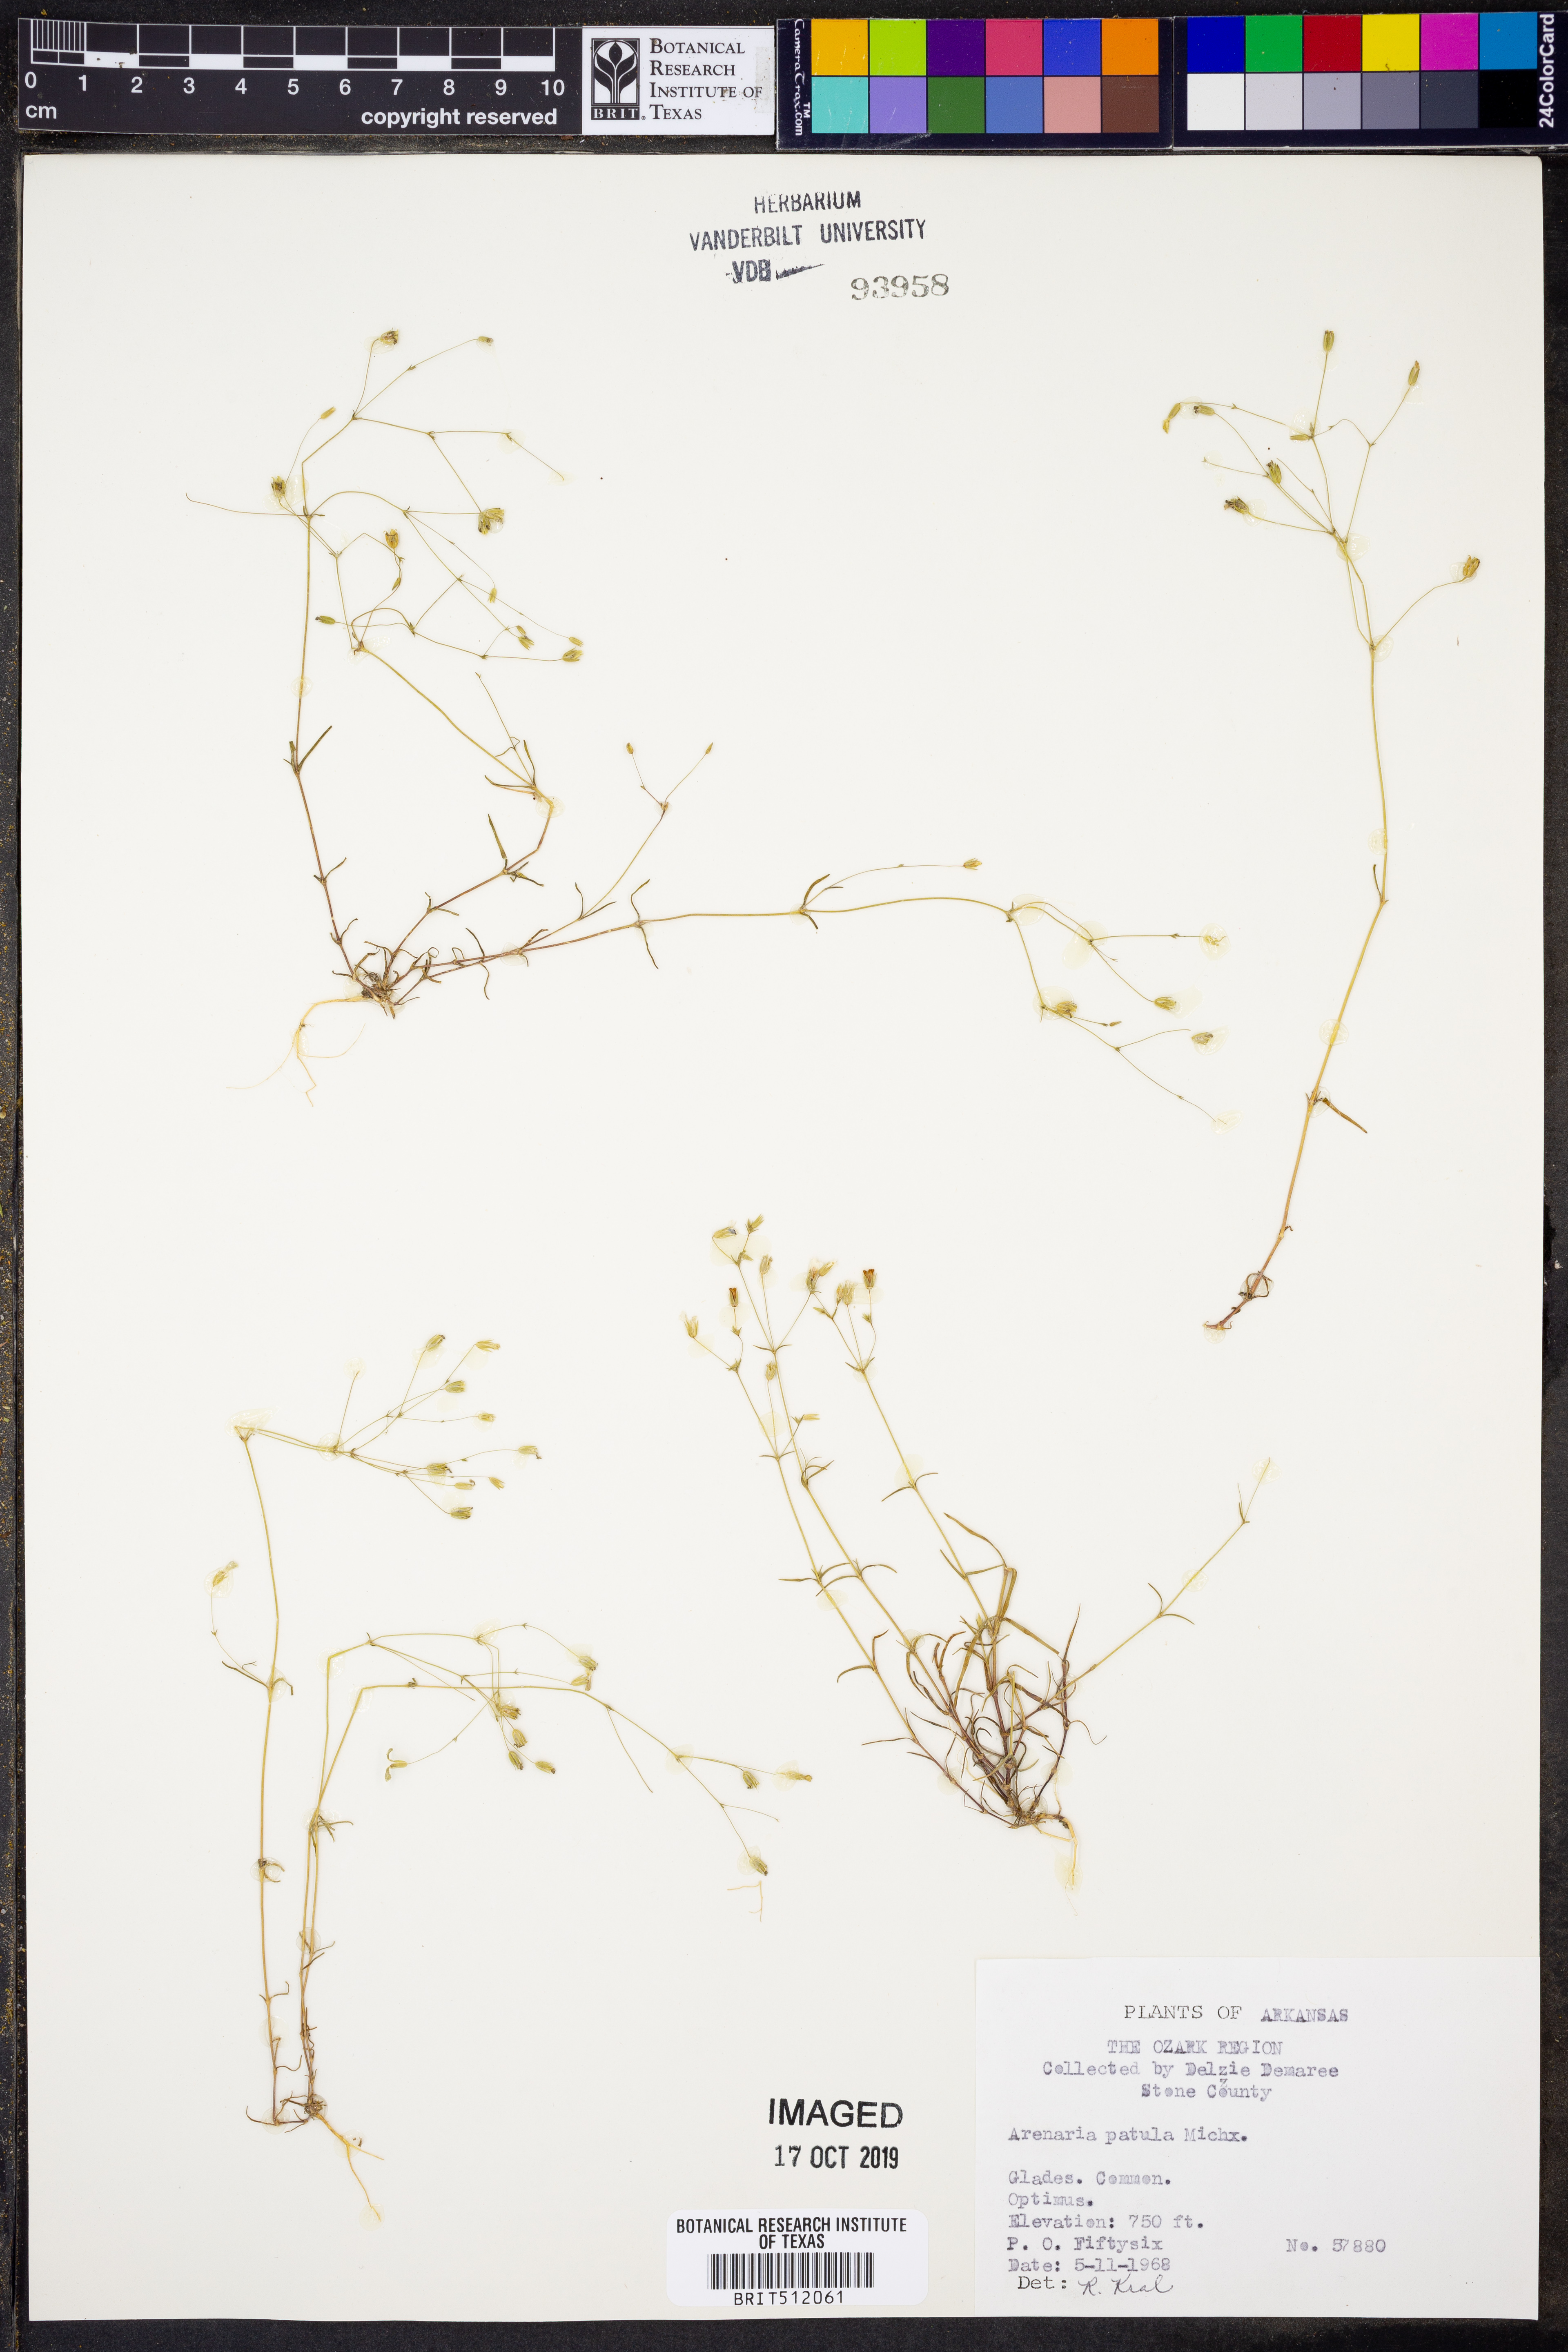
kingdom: Plantae
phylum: Tracheophyta
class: Magnoliopsida
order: Caryophyllales
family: Caryophyllaceae
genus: Mononeuria
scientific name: Mononeuria patula
